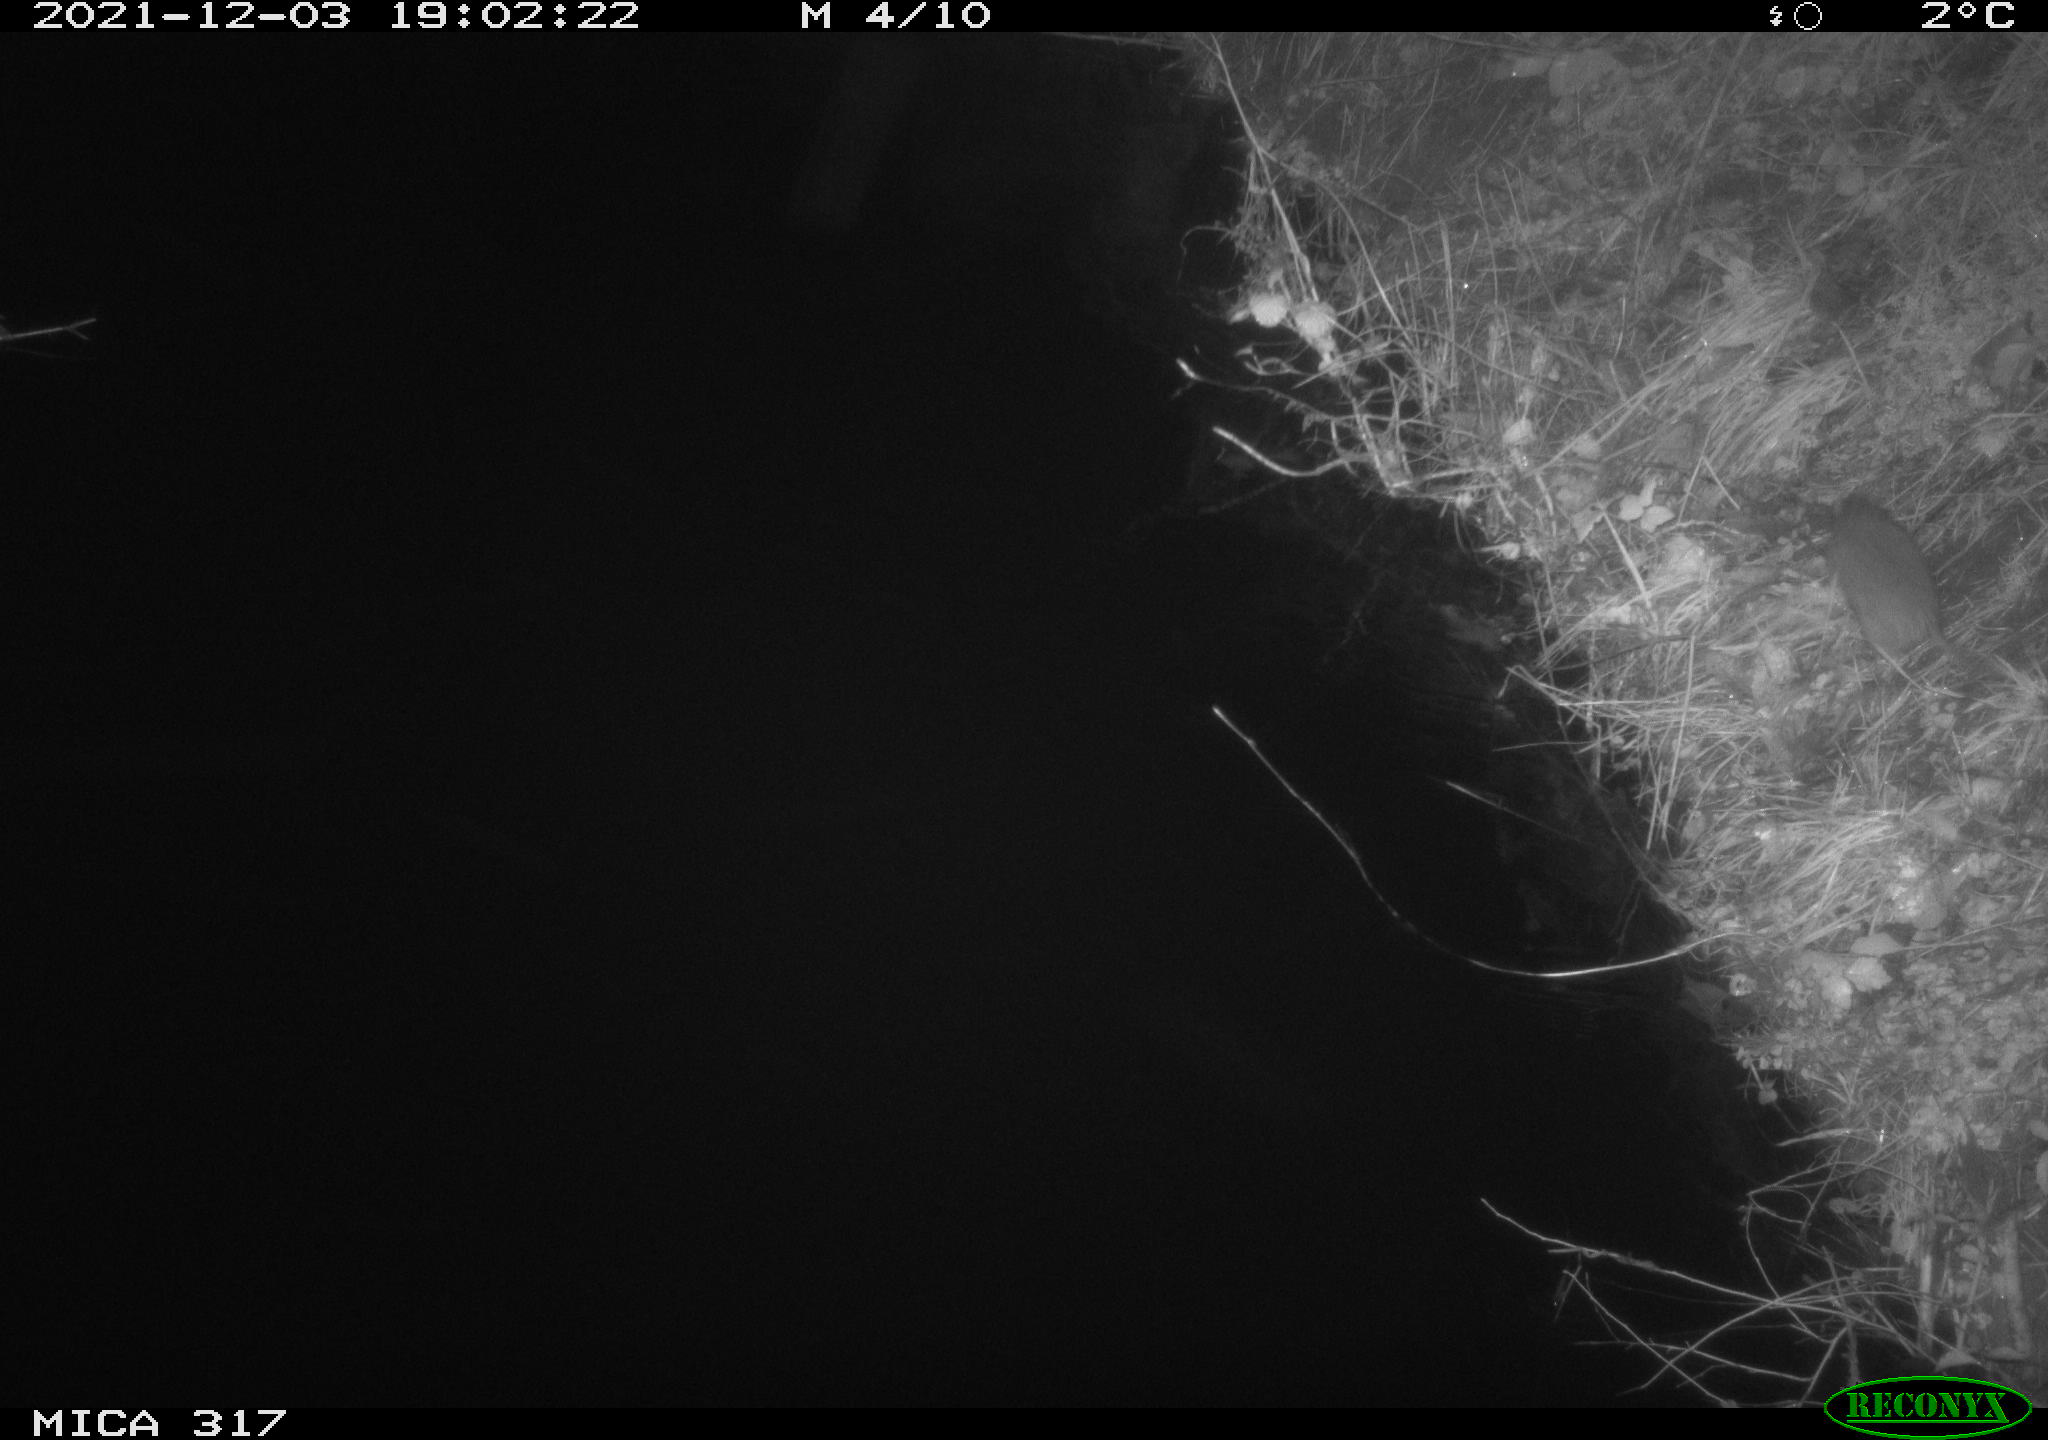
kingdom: Animalia
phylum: Chordata
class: Mammalia
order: Rodentia
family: Muridae
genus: Rattus
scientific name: Rattus norvegicus
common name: Brown rat
